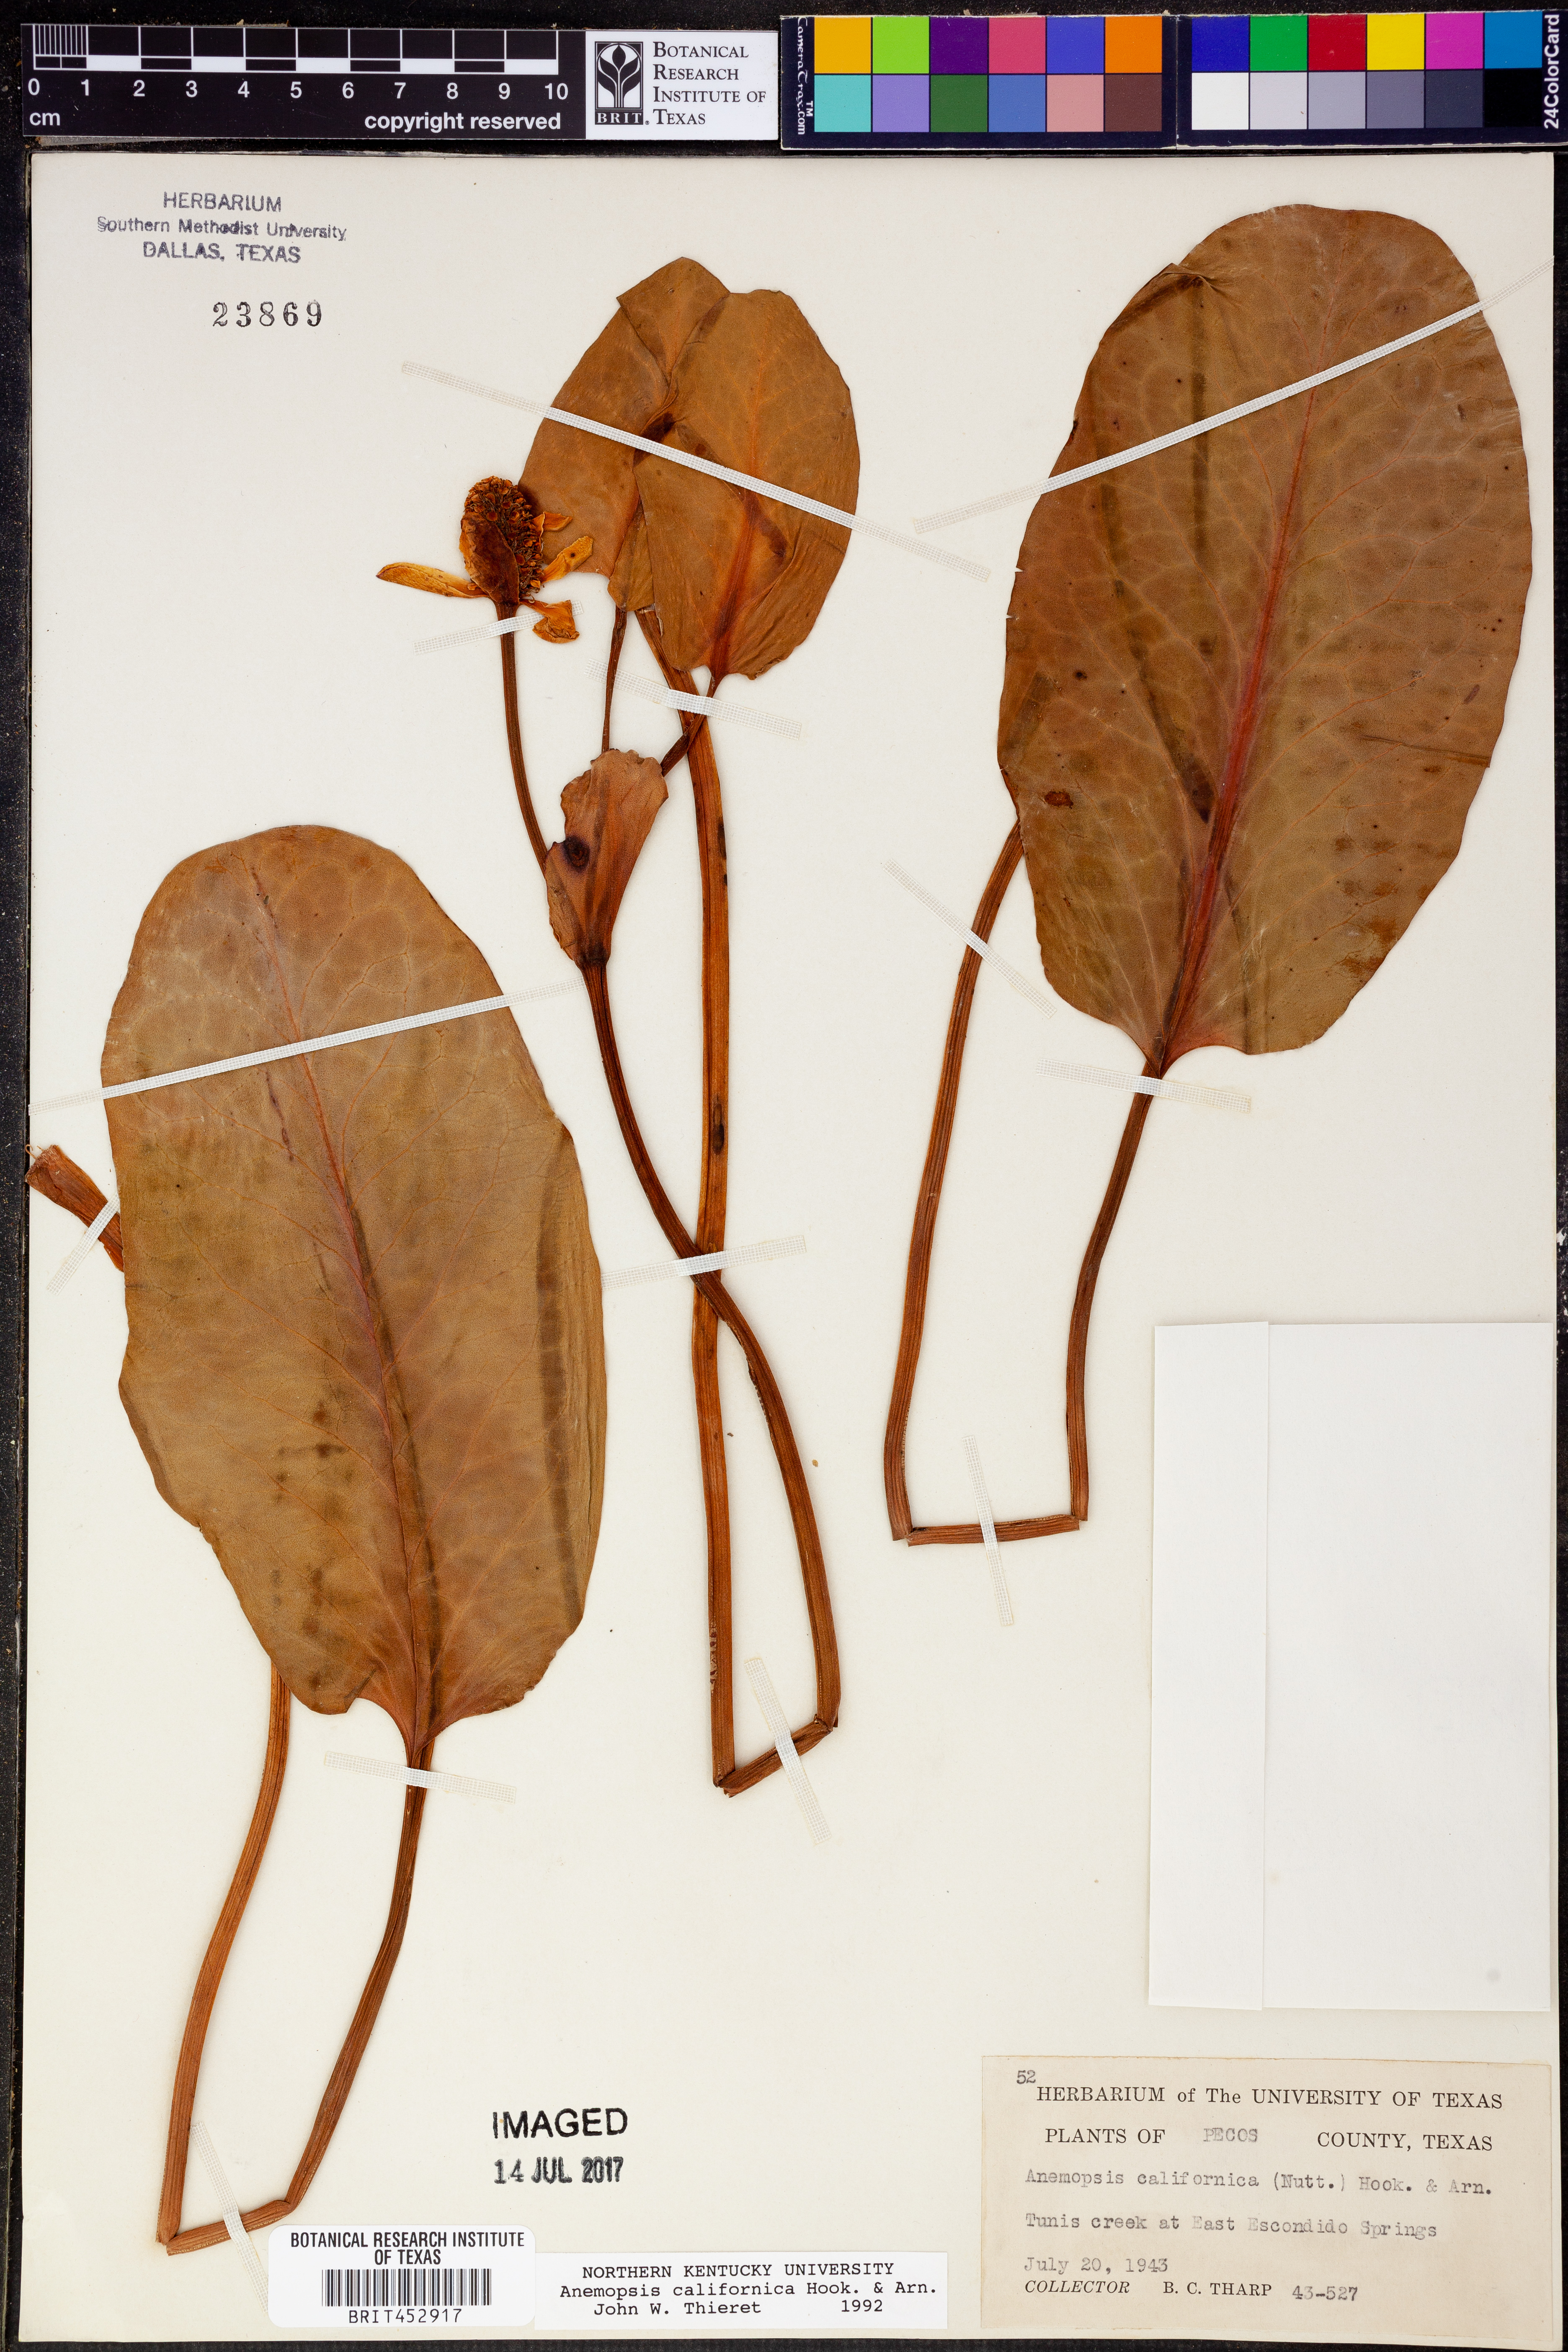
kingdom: Plantae
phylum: Tracheophyta
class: Magnoliopsida
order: Piperales
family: Saururaceae
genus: Anemopsis
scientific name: Anemopsis californica
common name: Apache-beads
